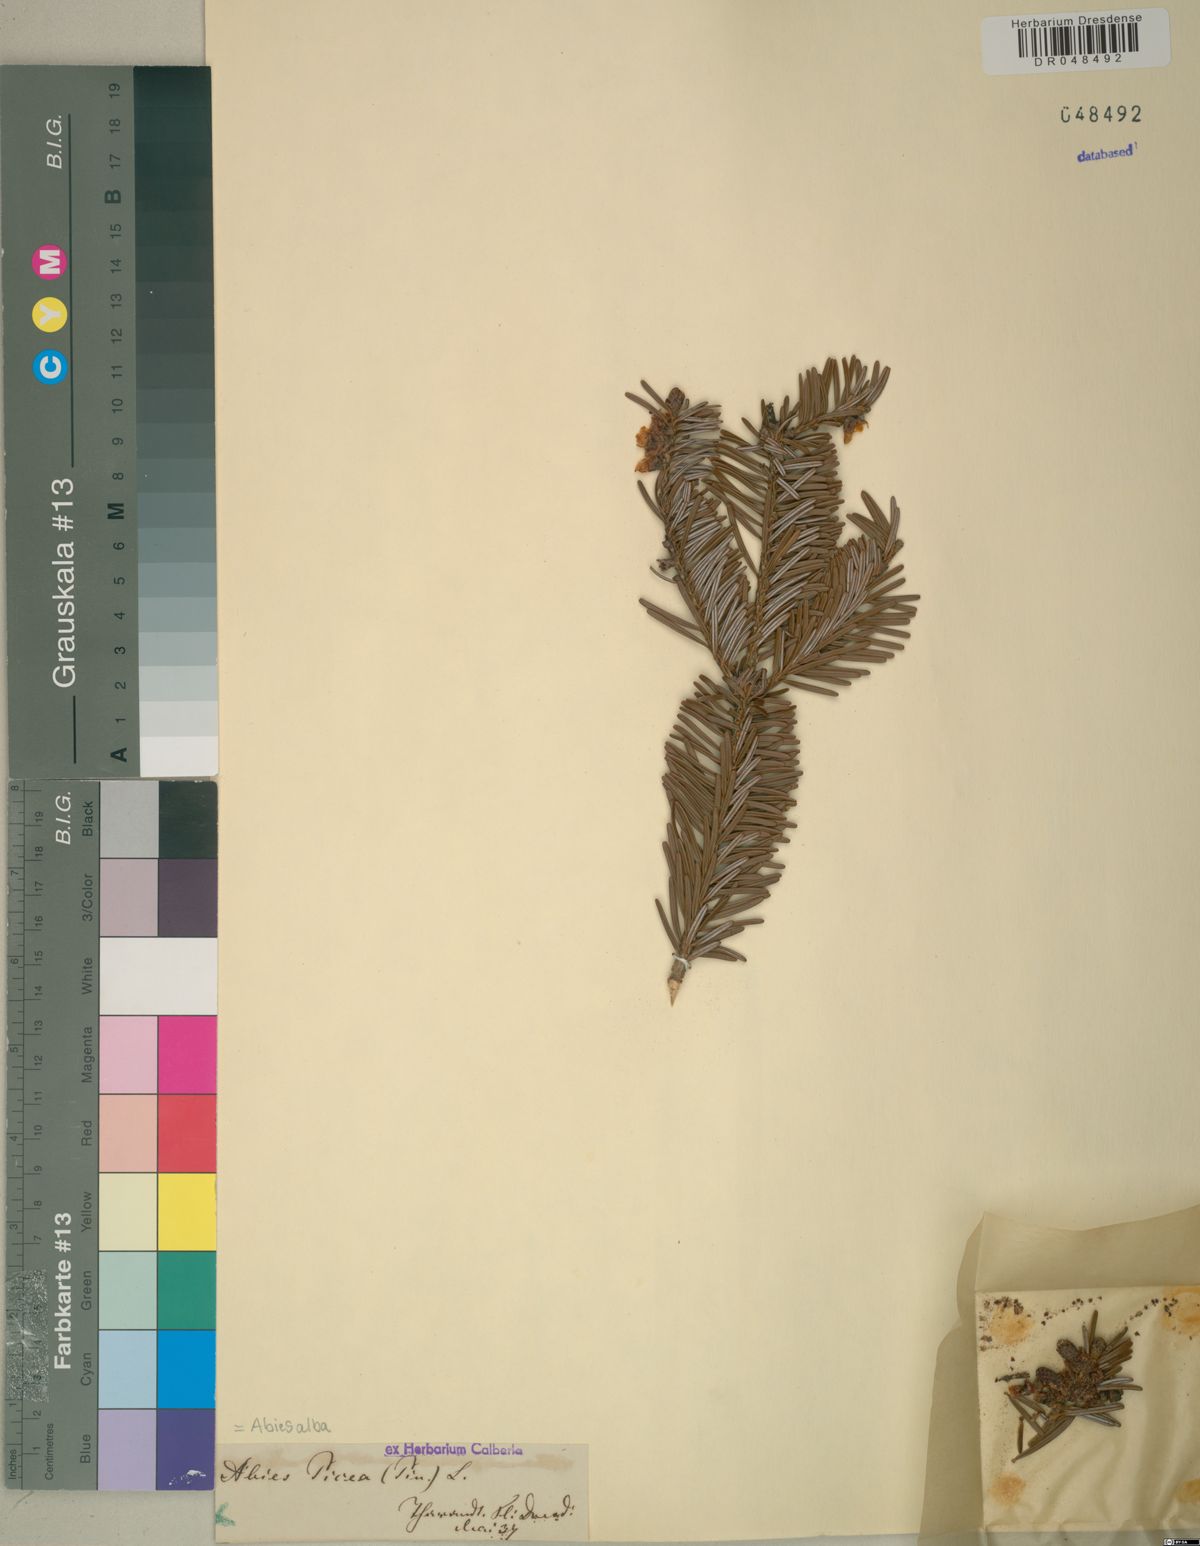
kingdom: Plantae
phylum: Tracheophyta
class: Pinopsida
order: Pinales
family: Pinaceae
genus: Abies
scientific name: Abies alba
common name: Silver fir
